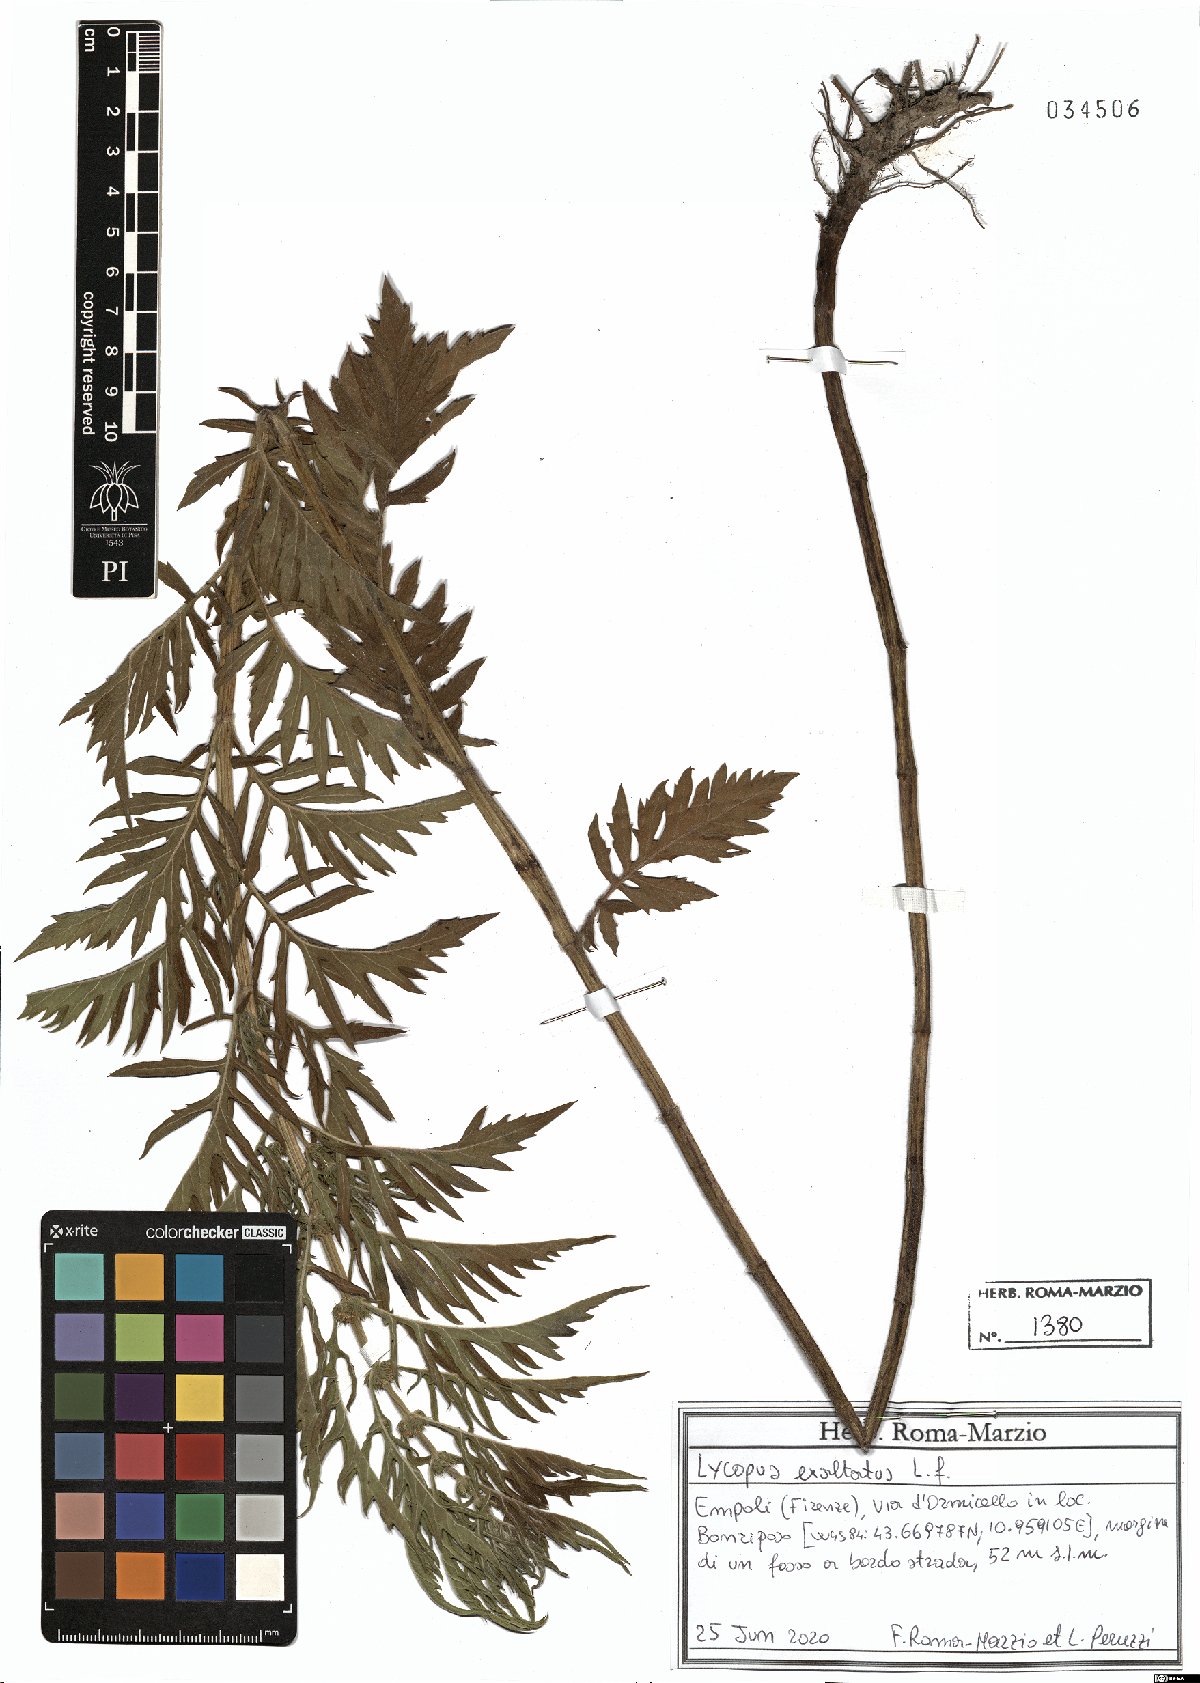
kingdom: Plantae
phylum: Tracheophyta
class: Magnoliopsida
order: Lamiales
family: Lamiaceae
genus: Lycopus
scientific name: Lycopus exaltatus
